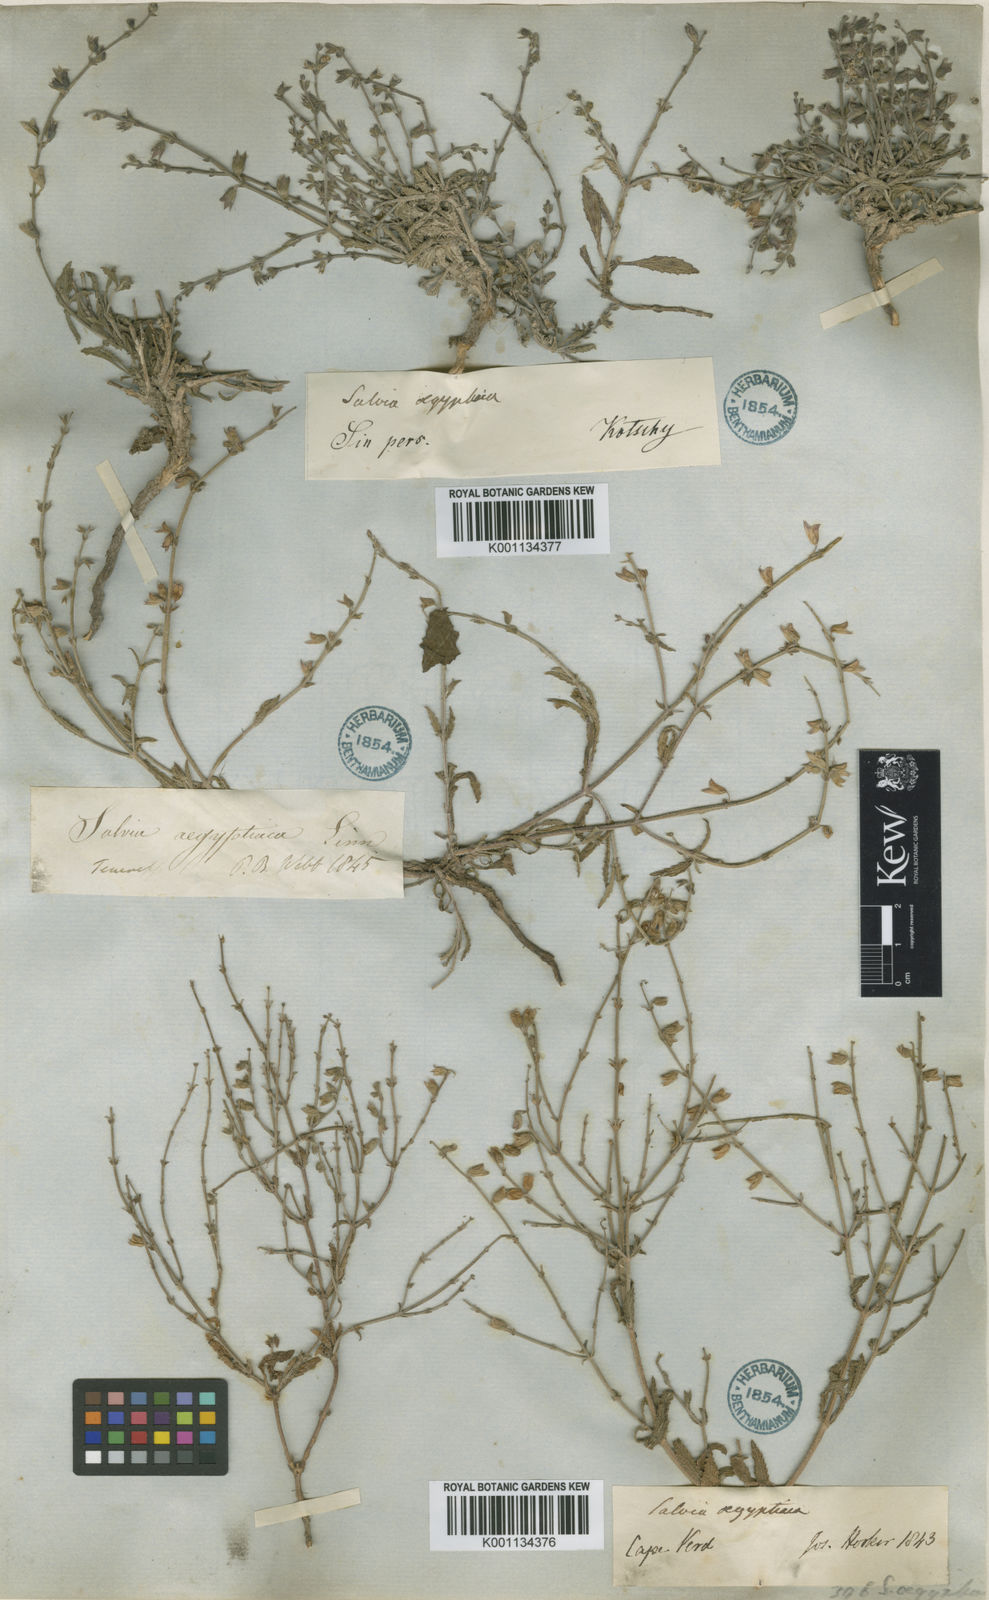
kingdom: Plantae
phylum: Tracheophyta
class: Magnoliopsida
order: Lamiales
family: Lamiaceae
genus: Salvia
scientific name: Salvia aegyptiaca
